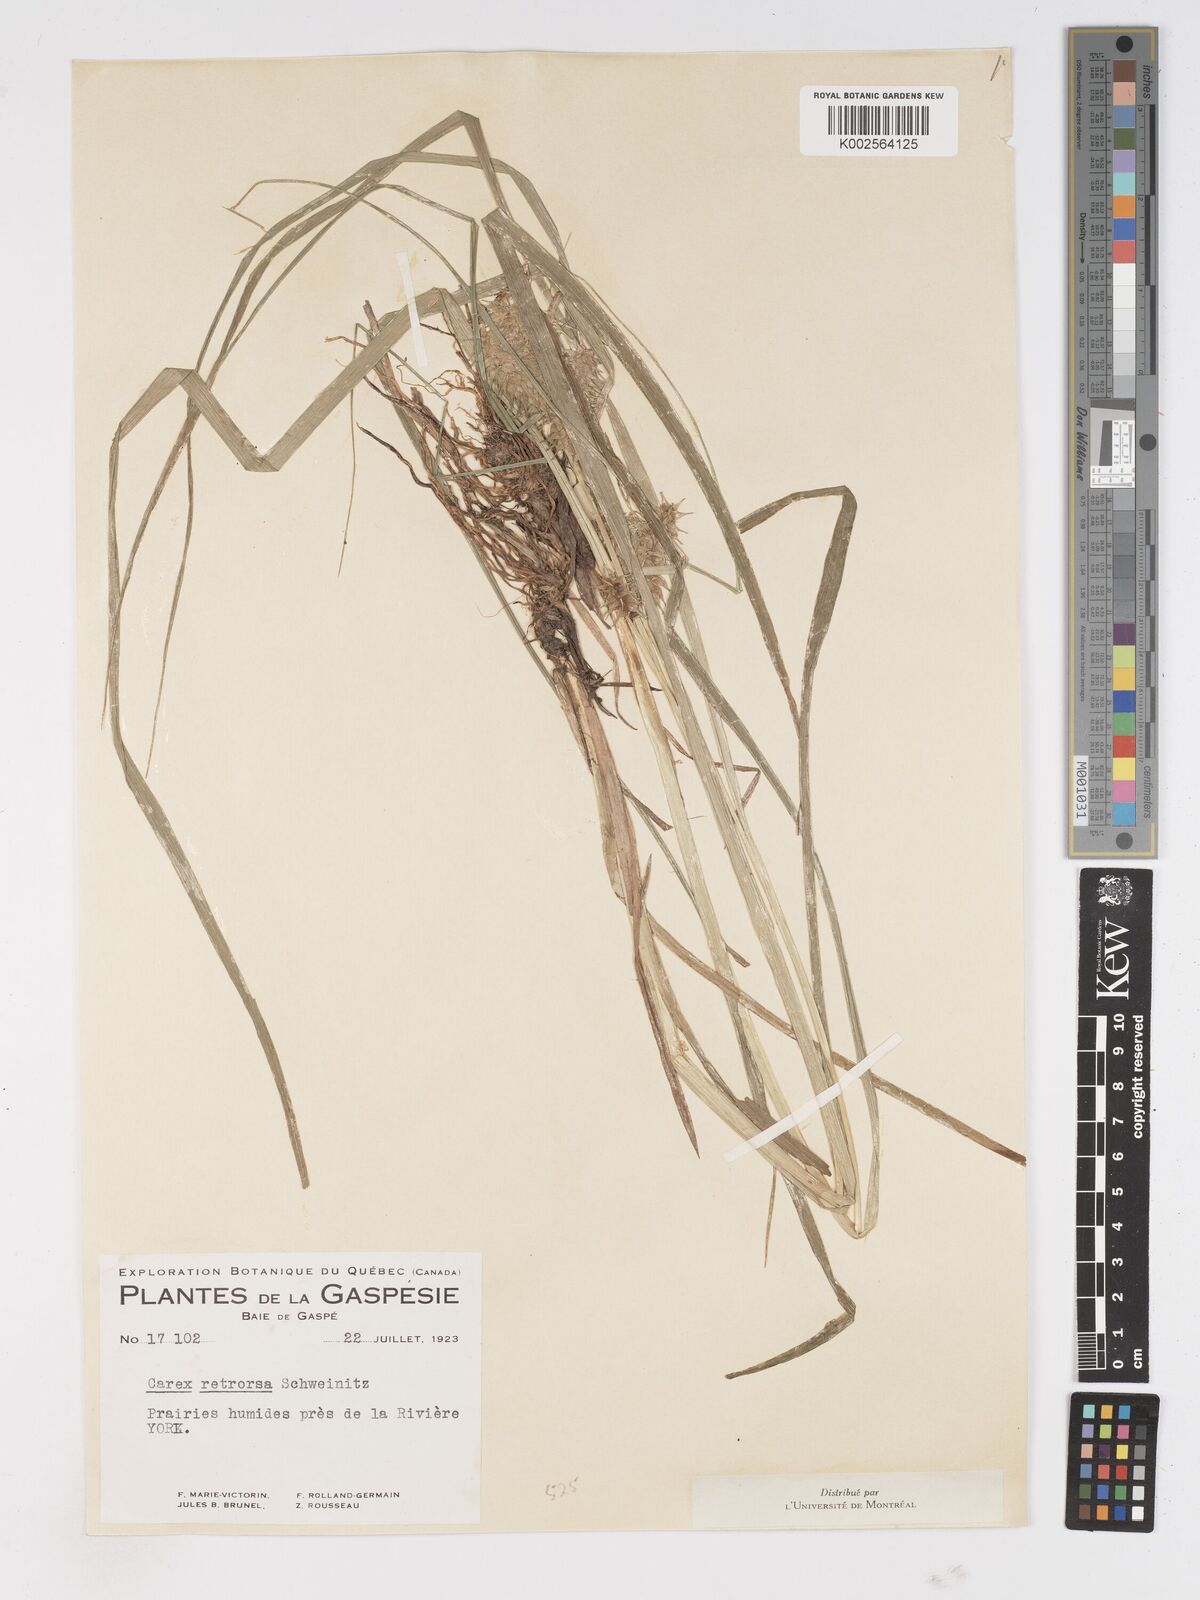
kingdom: Plantae
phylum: Tracheophyta
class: Liliopsida
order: Poales
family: Cyperaceae
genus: Carex
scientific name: Carex retrorsa
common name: Knot-sheath sedge
